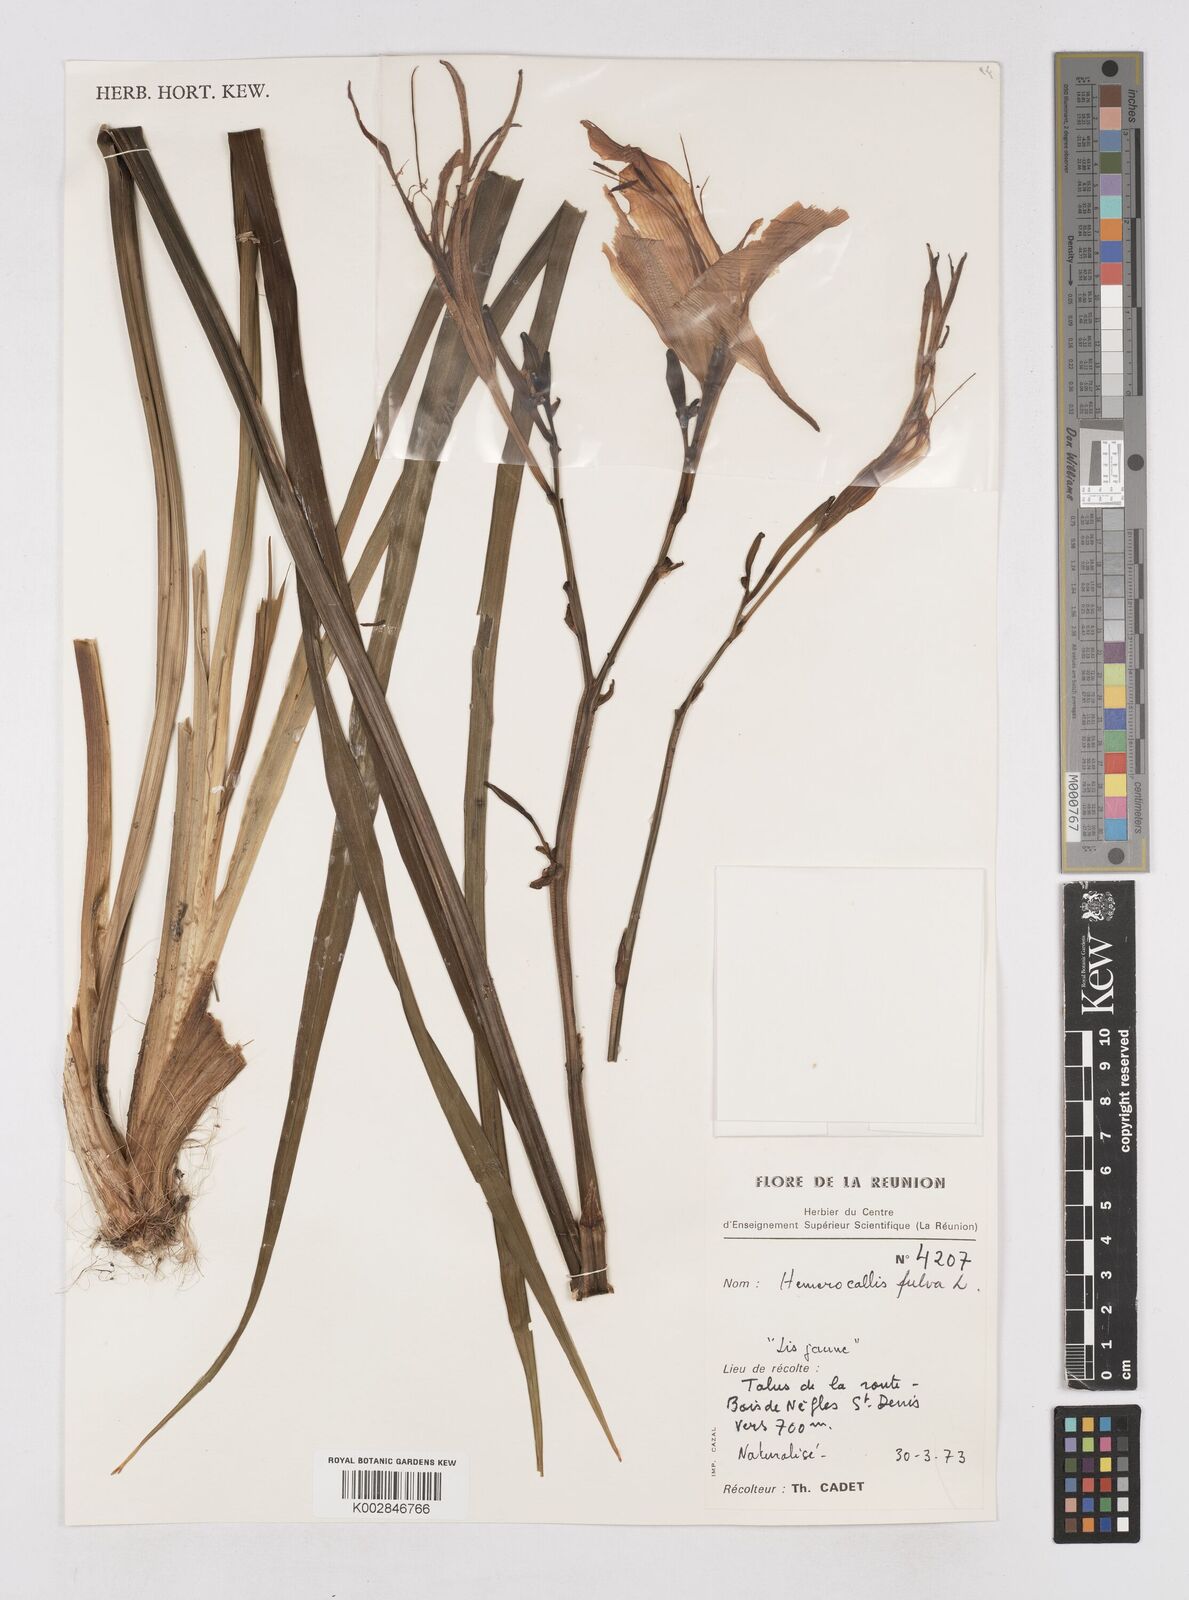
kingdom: Plantae
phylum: Tracheophyta
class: Liliopsida
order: Asparagales
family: Asphodelaceae
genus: Hemerocallis
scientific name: Hemerocallis fulva
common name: Orange day-lily
